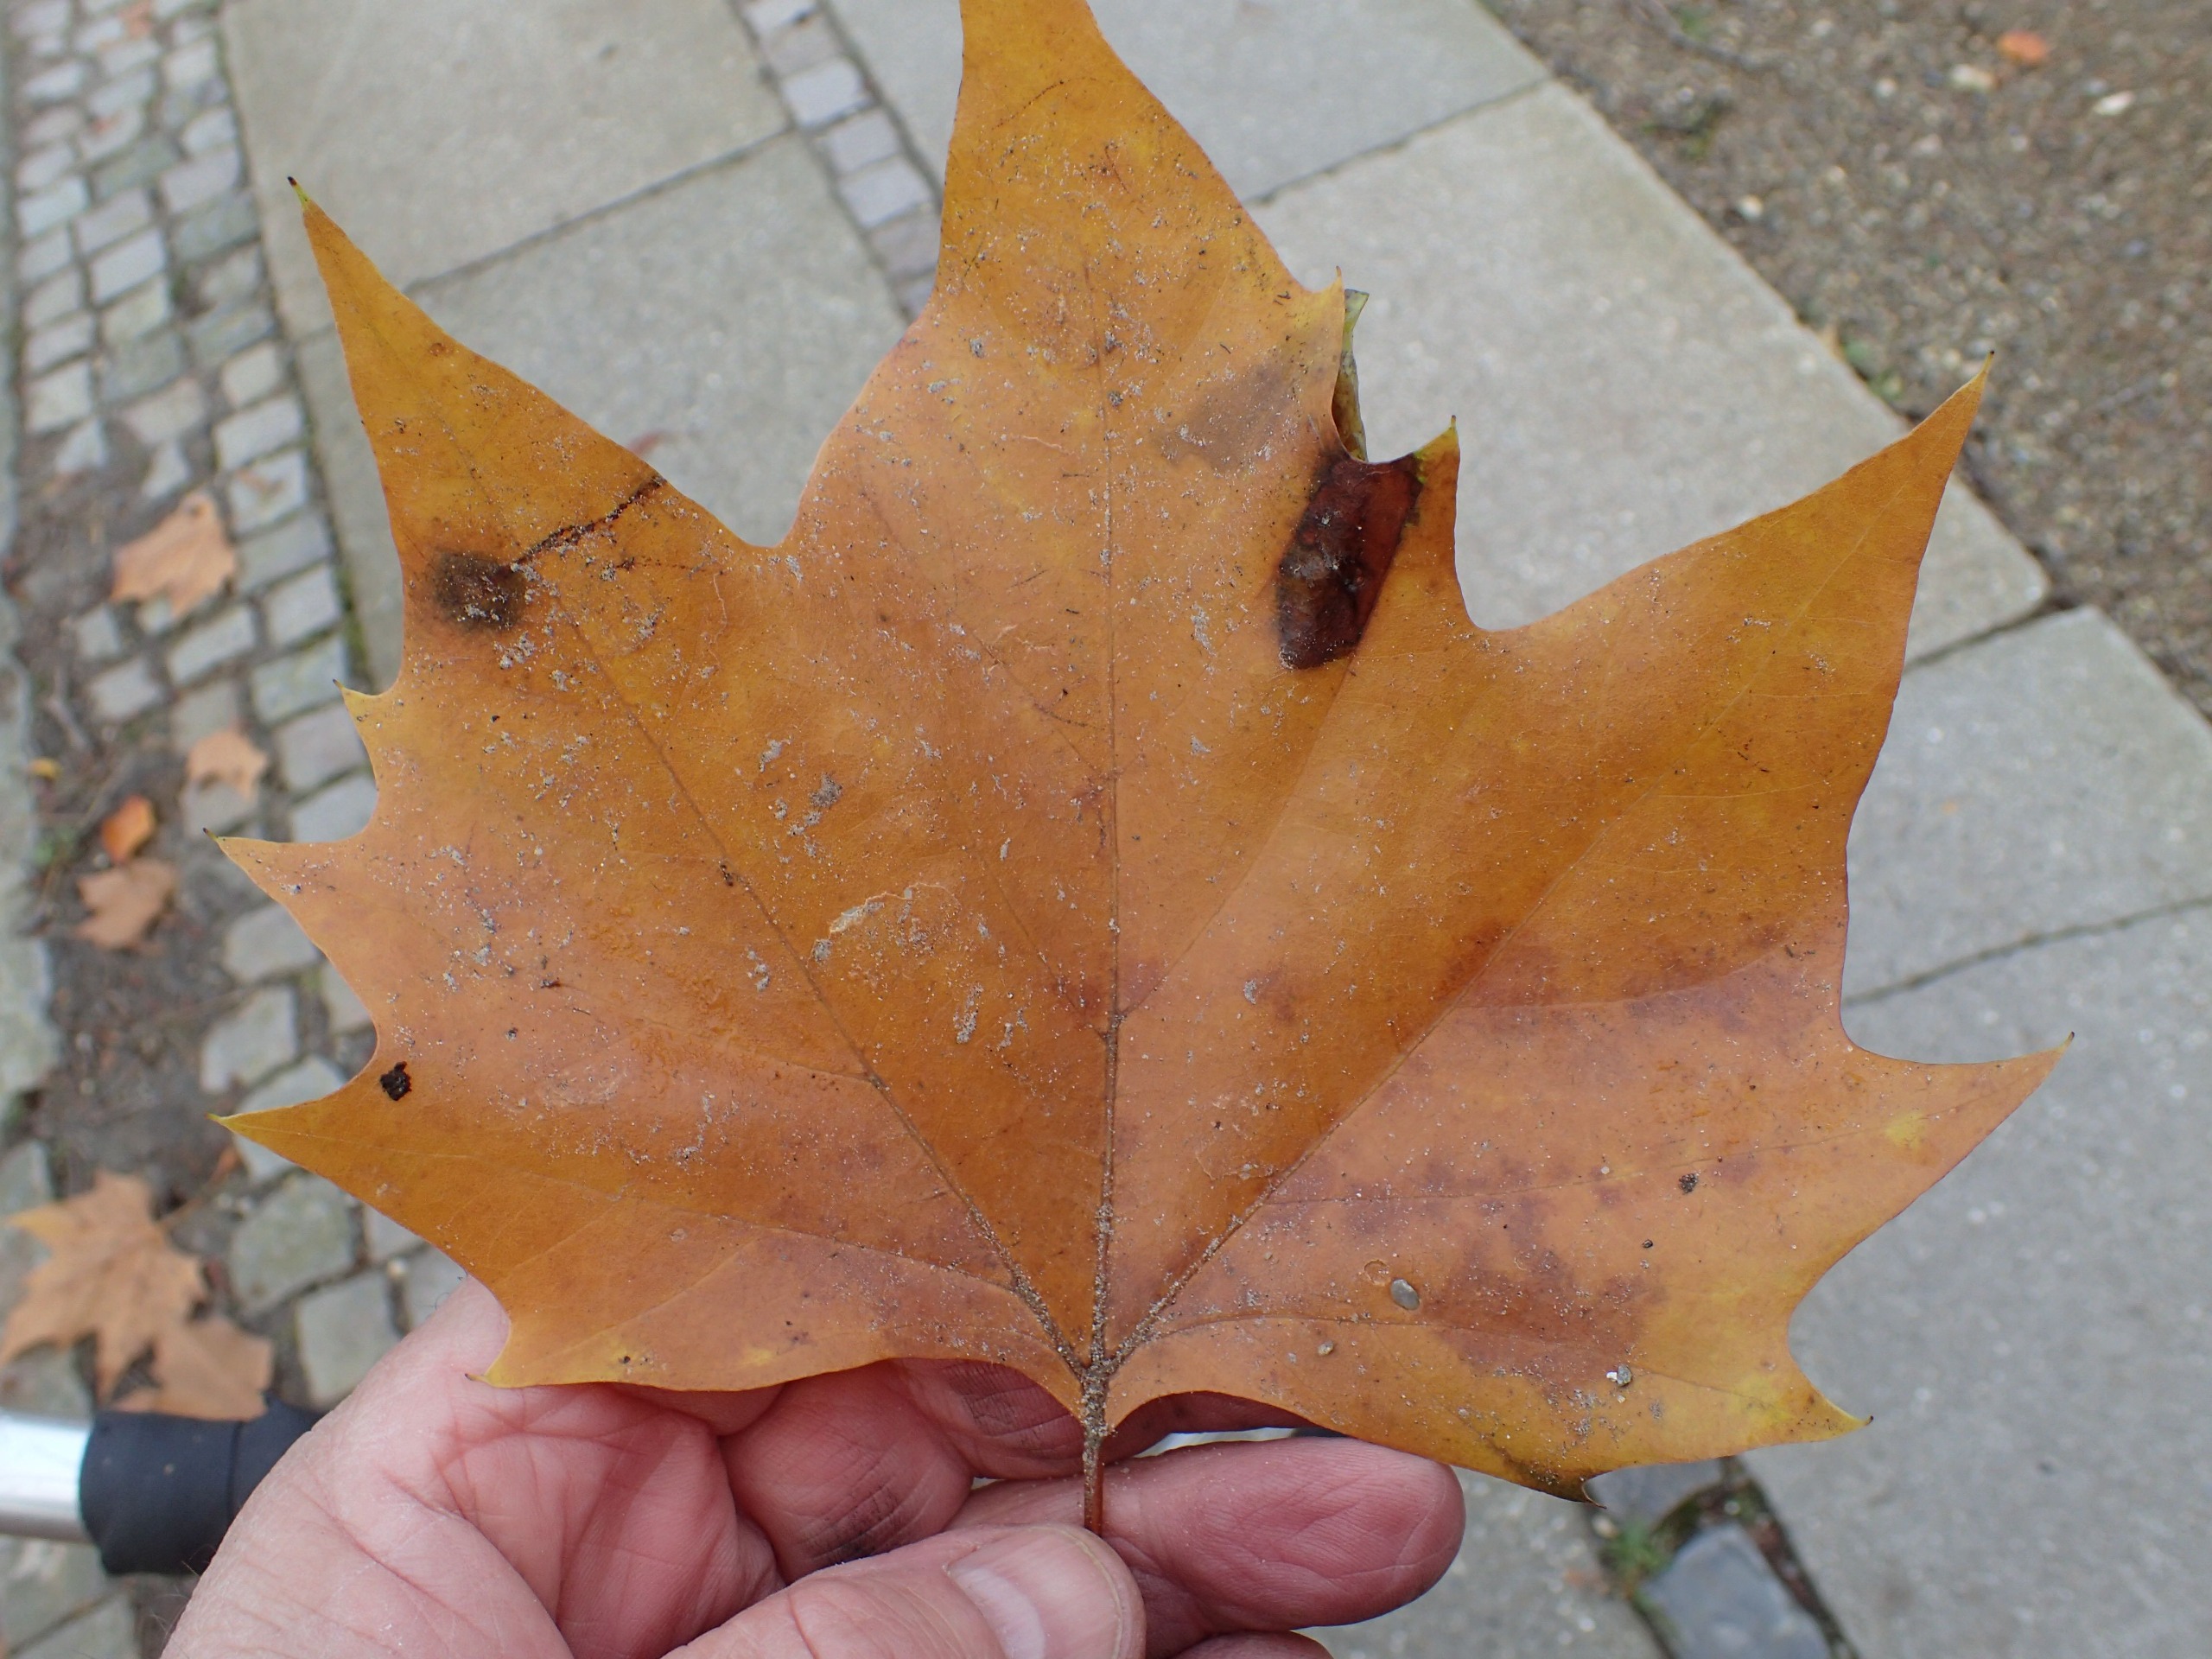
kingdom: Plantae
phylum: Tracheophyta
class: Magnoliopsida
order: Proteales
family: Platanaceae
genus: Platanus
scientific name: Platanus hispanica
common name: Almindelig platan
